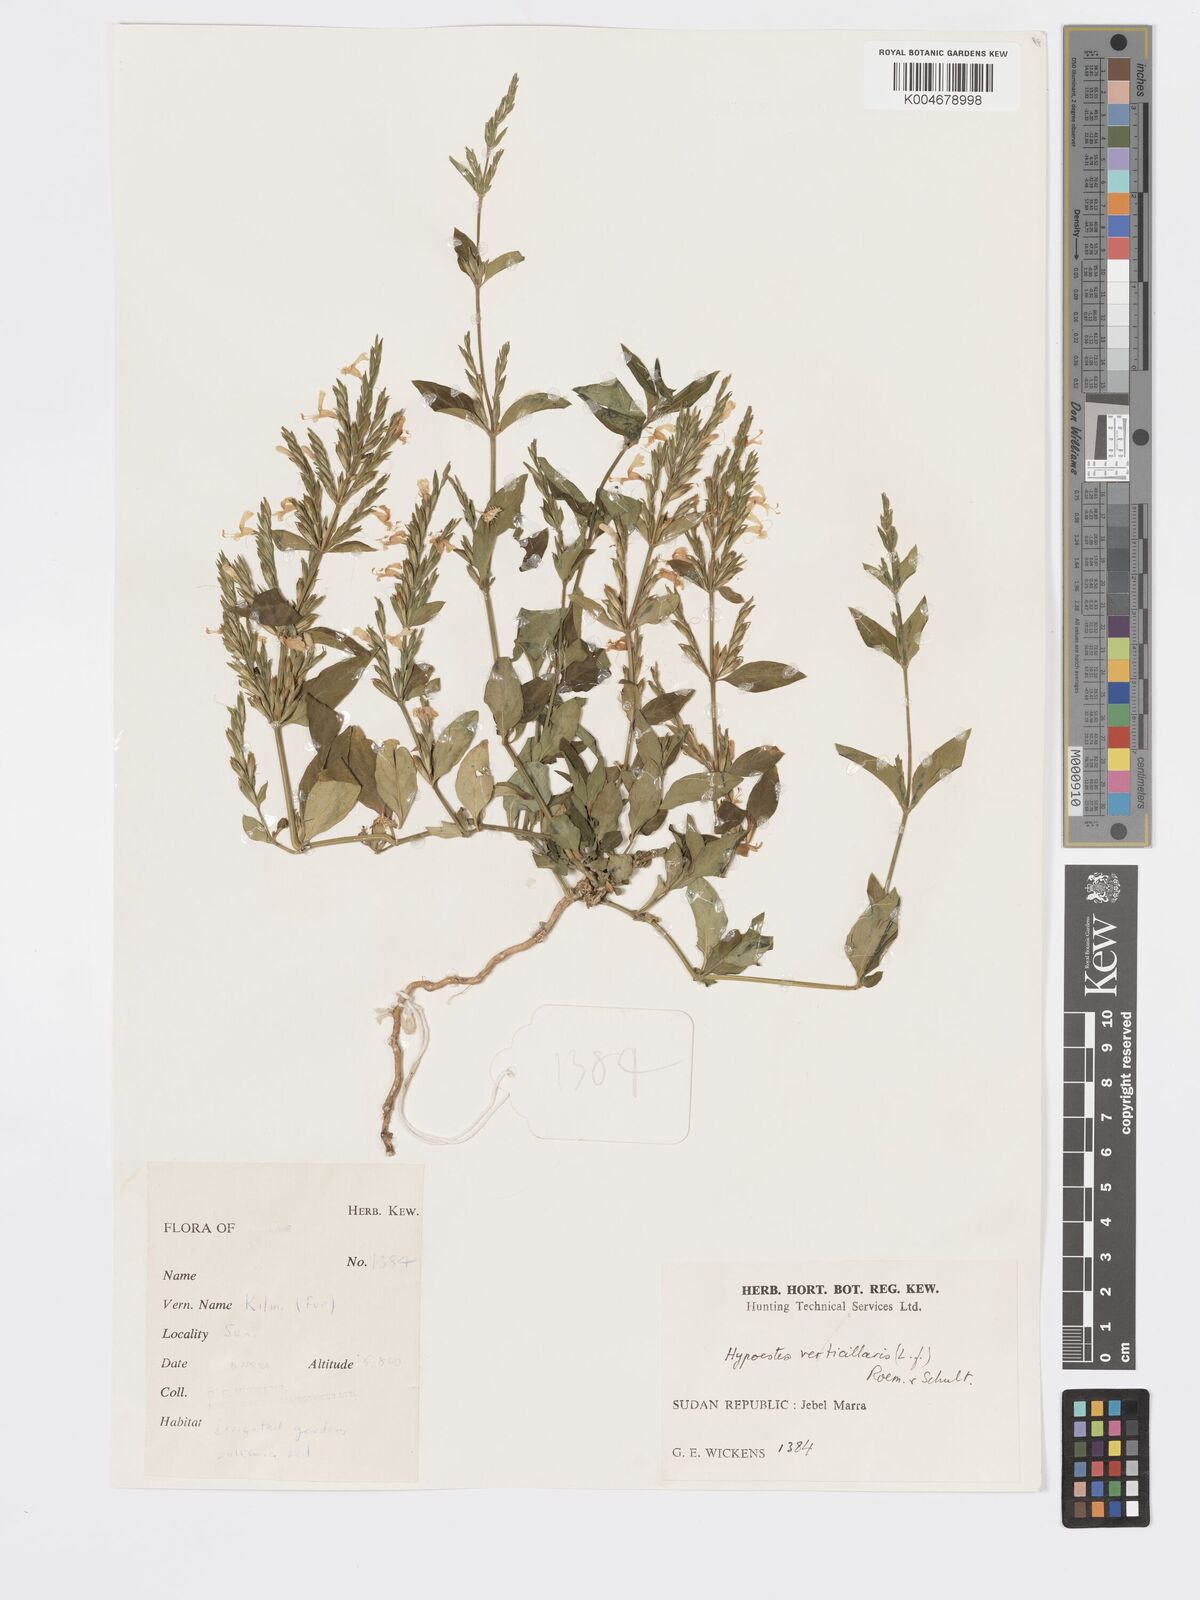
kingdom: Plantae
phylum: Tracheophyta
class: Magnoliopsida
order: Lamiales
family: Acanthaceae
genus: Hypoestes
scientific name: Hypoestes forskaolii
